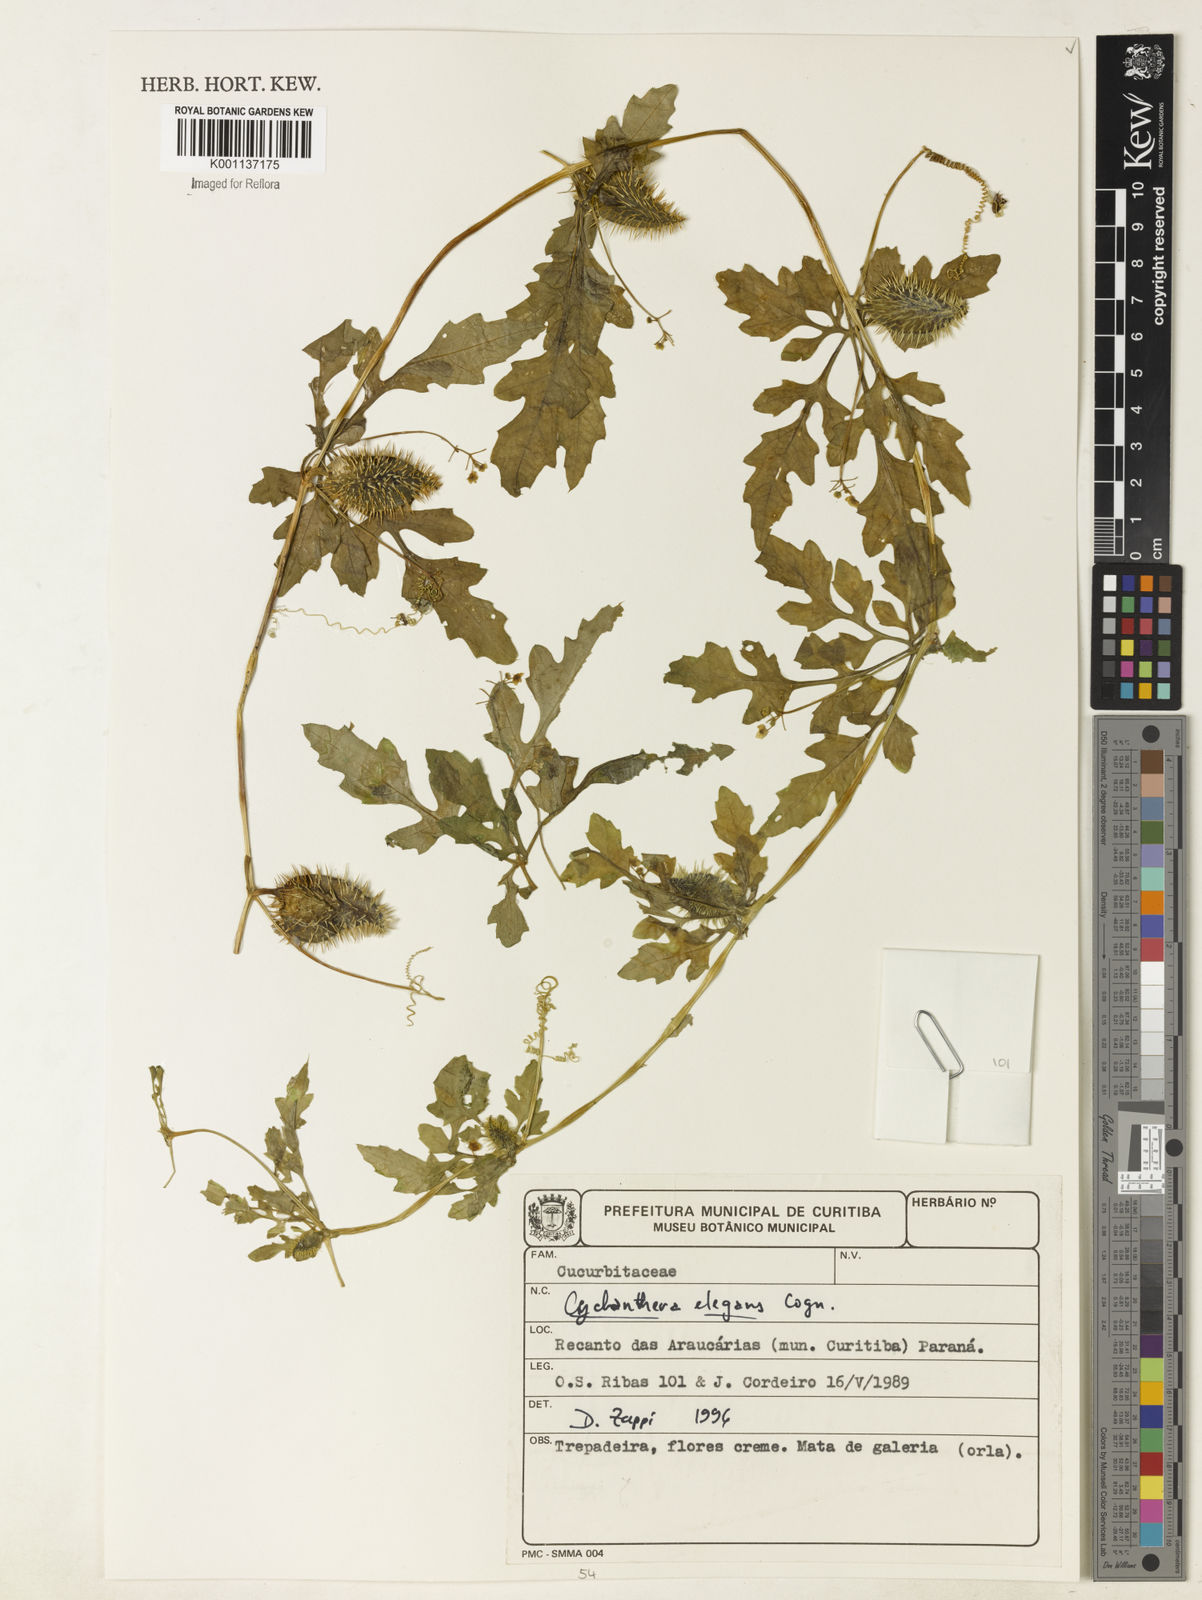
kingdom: Plantae
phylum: Tracheophyta
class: Magnoliopsida
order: Cucurbitales
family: Cucurbitaceae
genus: Cyclanthera
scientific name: Cyclanthera tenuisepala
